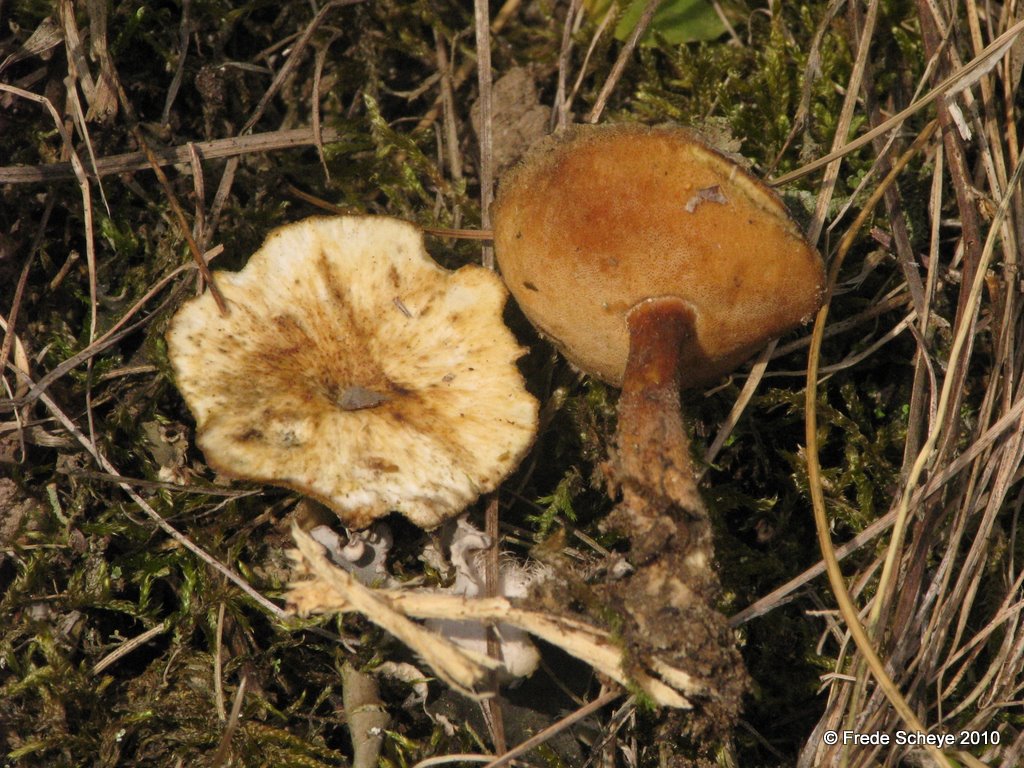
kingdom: Fungi
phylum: Basidiomycota
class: Agaricomycetes
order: Polyporales
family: Polyporaceae
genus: Lentinus
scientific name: Lentinus substrictus
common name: forårs-stilkporesvamp
